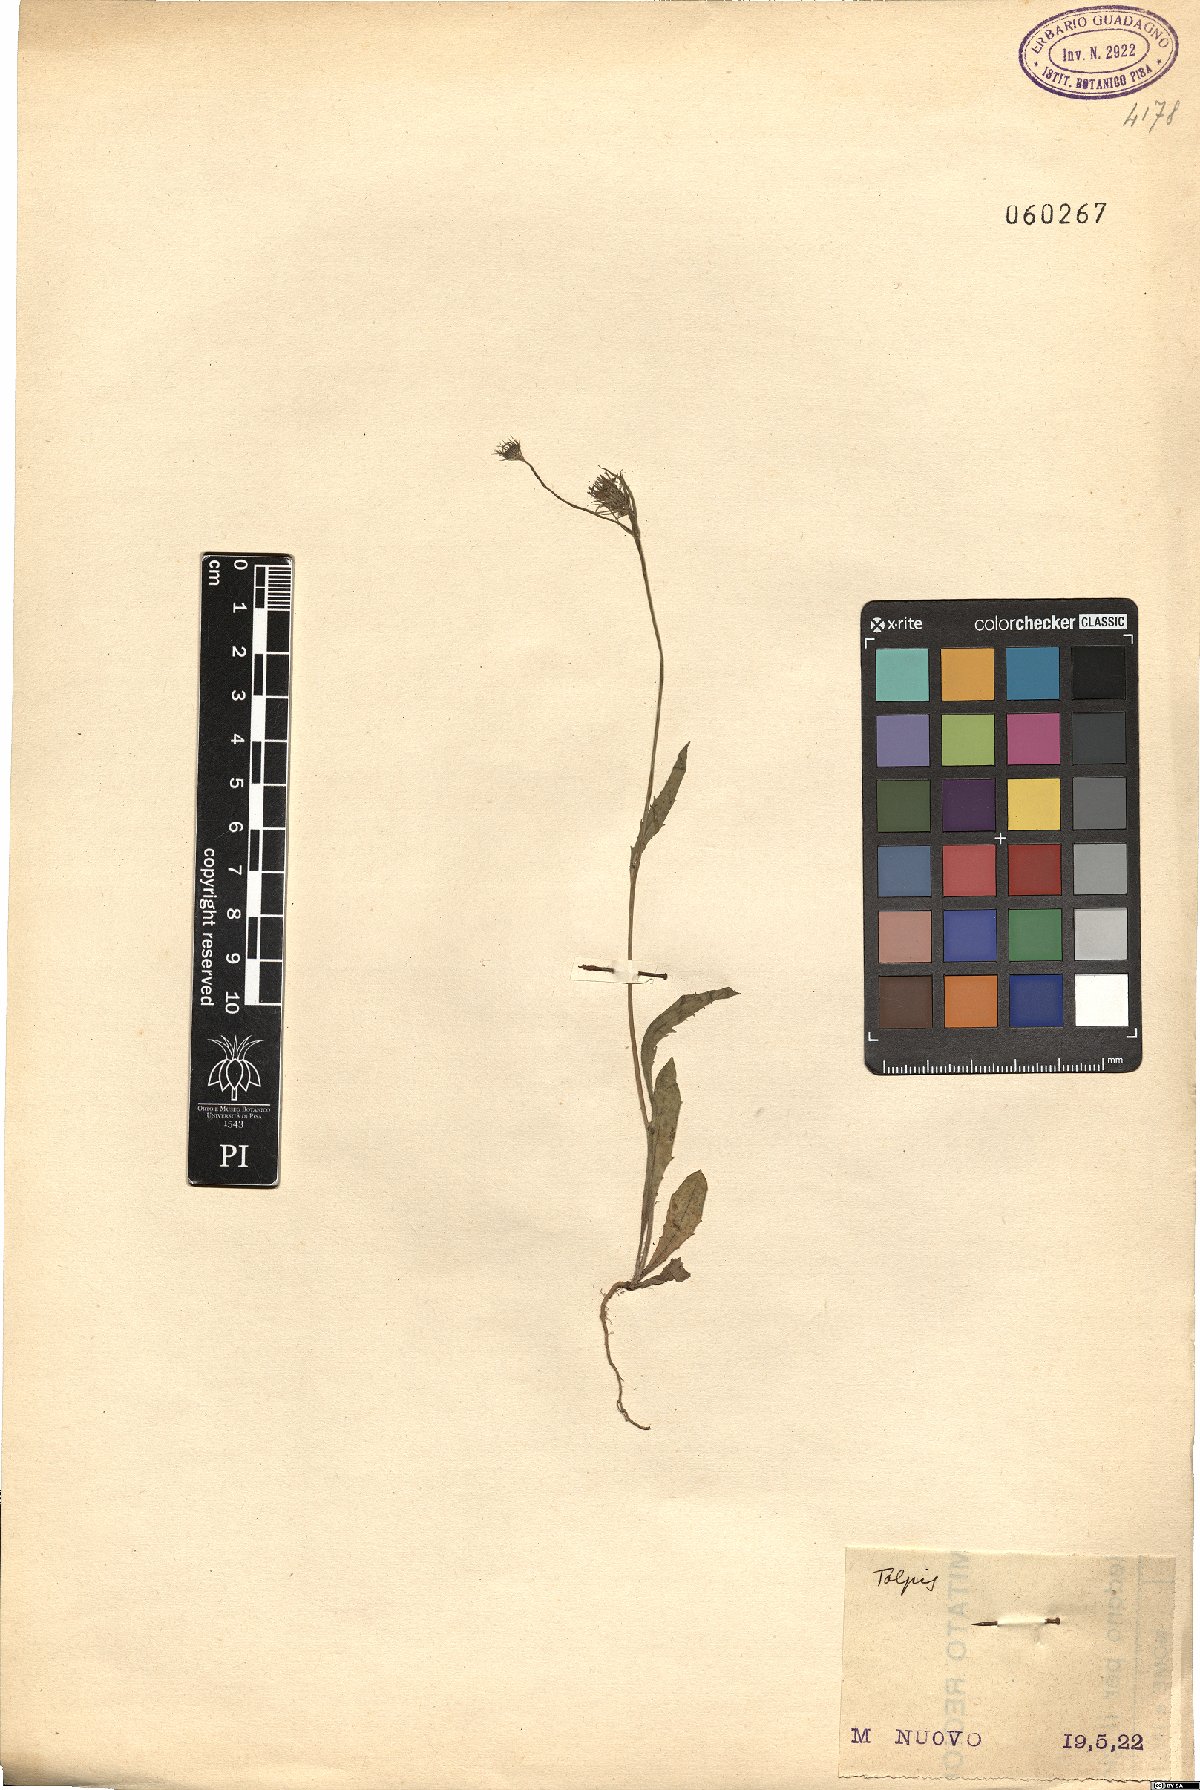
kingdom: Plantae
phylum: Tracheophyta
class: Magnoliopsida
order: Asterales
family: Asteraceae
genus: Tolpis
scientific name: Tolpis
